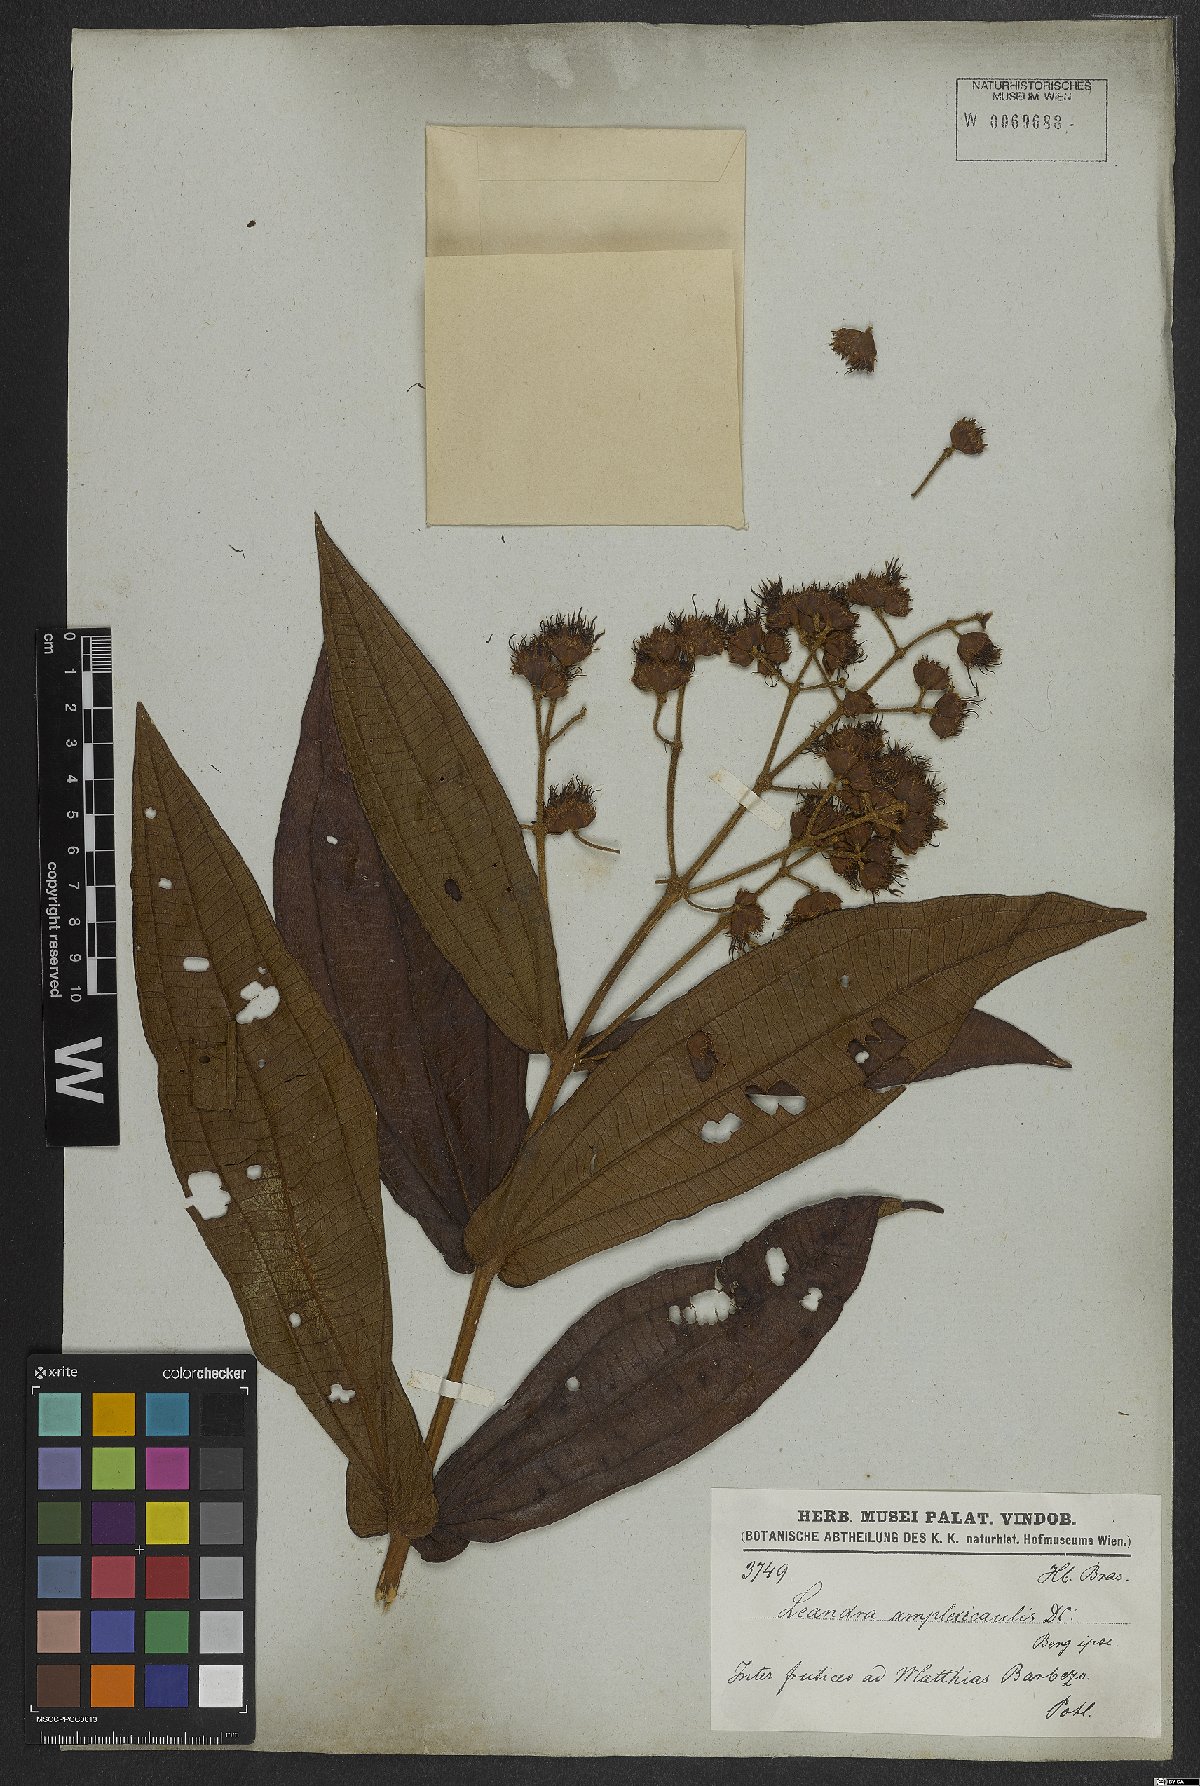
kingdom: Plantae
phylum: Tracheophyta
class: Magnoliopsida
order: Myrtales
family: Melastomataceae
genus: Miconia
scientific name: Miconia pectinata
